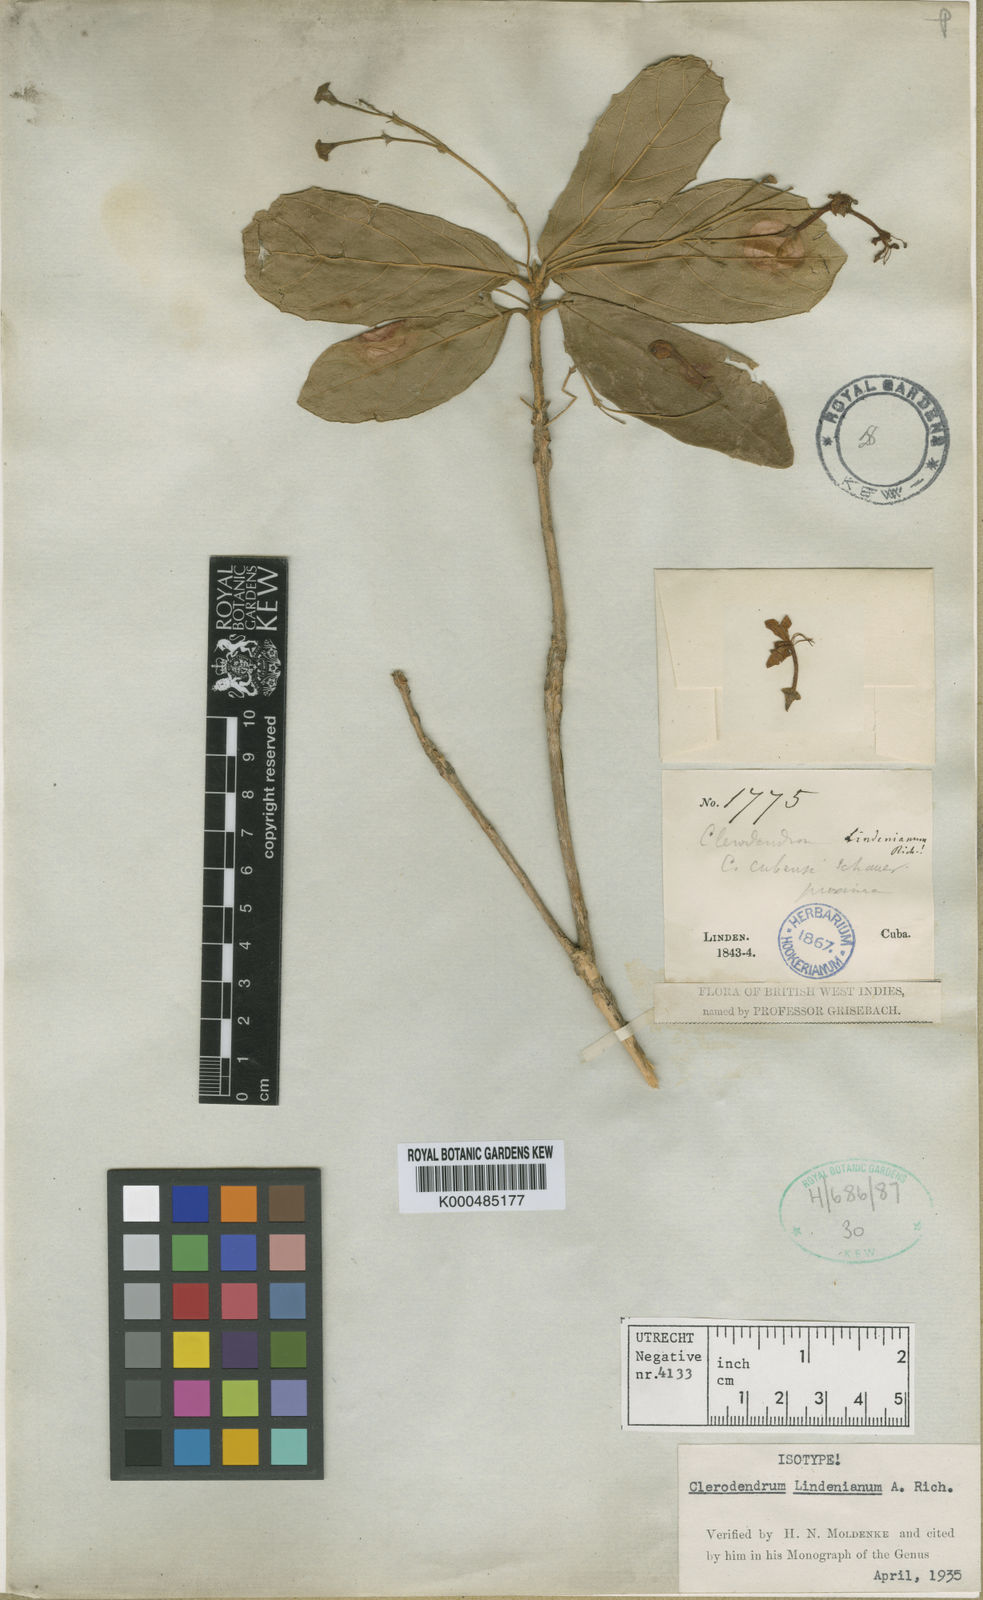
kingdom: Plantae
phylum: Tracheophyta
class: Magnoliopsida
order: Lamiales
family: Lamiaceae
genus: Clerodendrum
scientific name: Clerodendrum lindenianum
